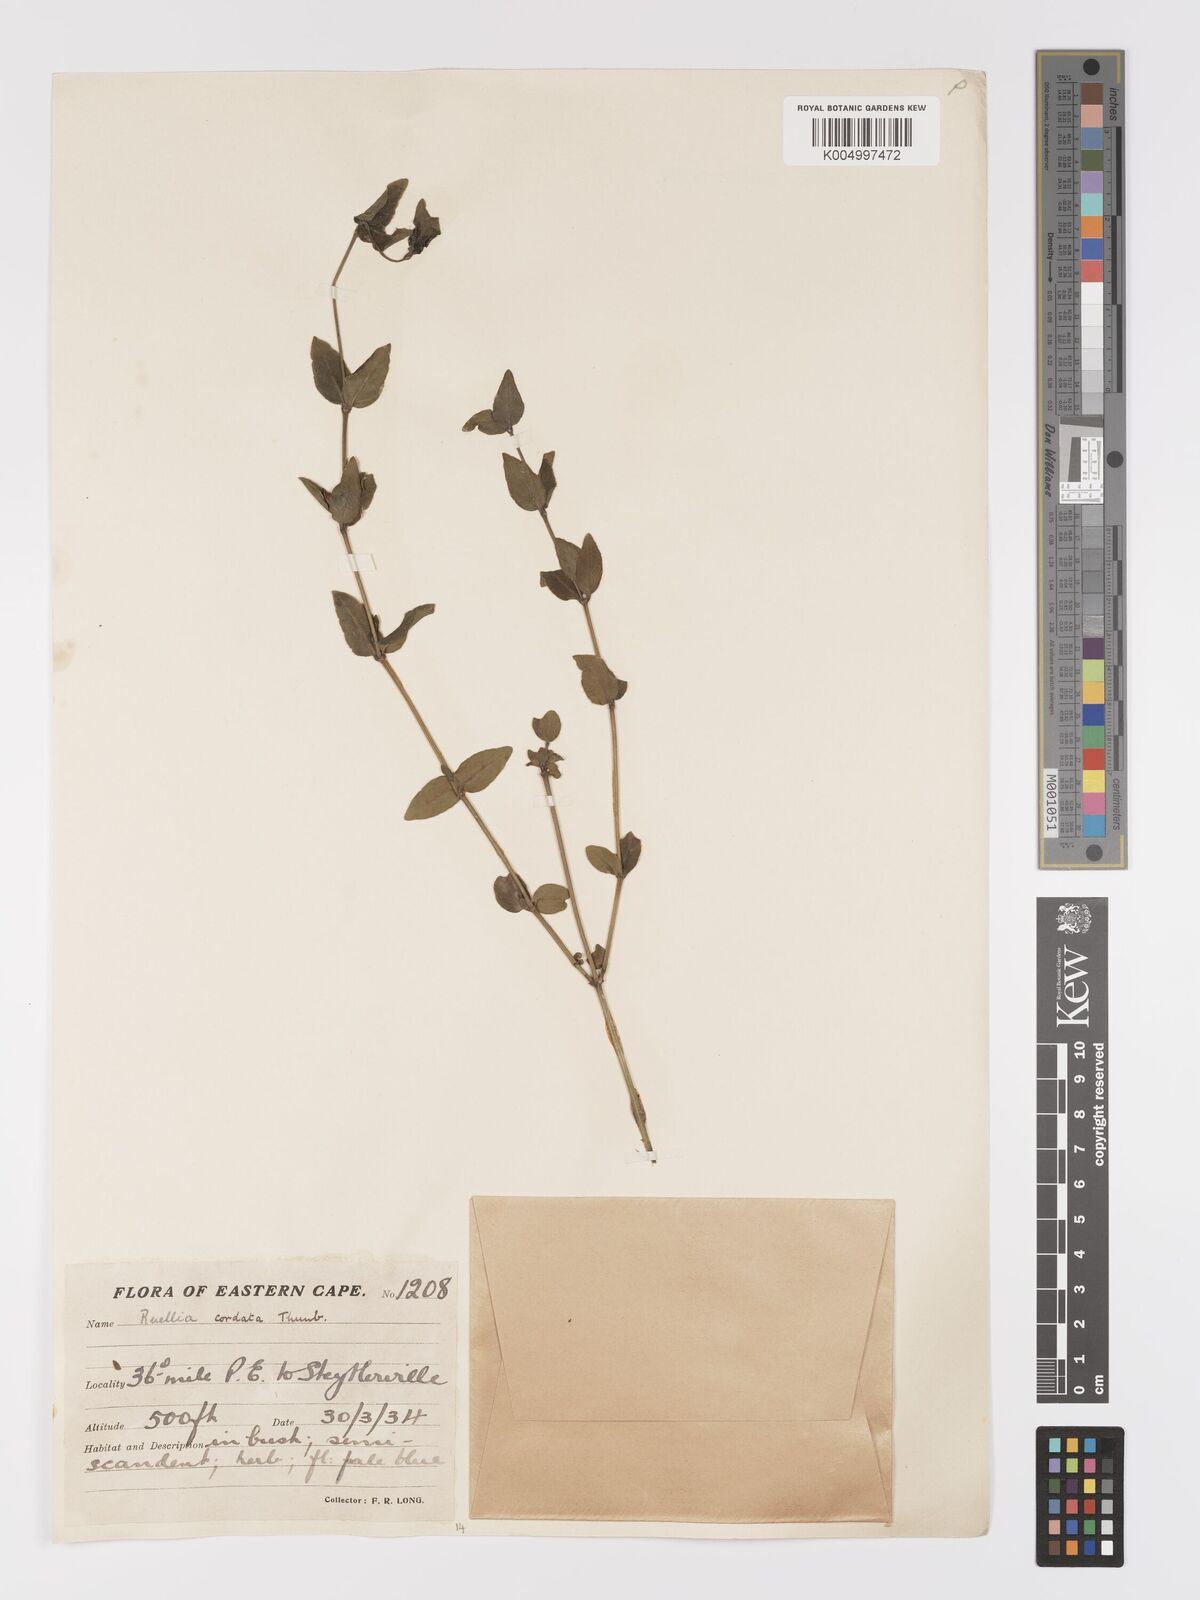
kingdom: Plantae
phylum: Tracheophyta
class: Magnoliopsida
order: Lamiales
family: Acanthaceae
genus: Ruellia
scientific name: Ruellia cordata
